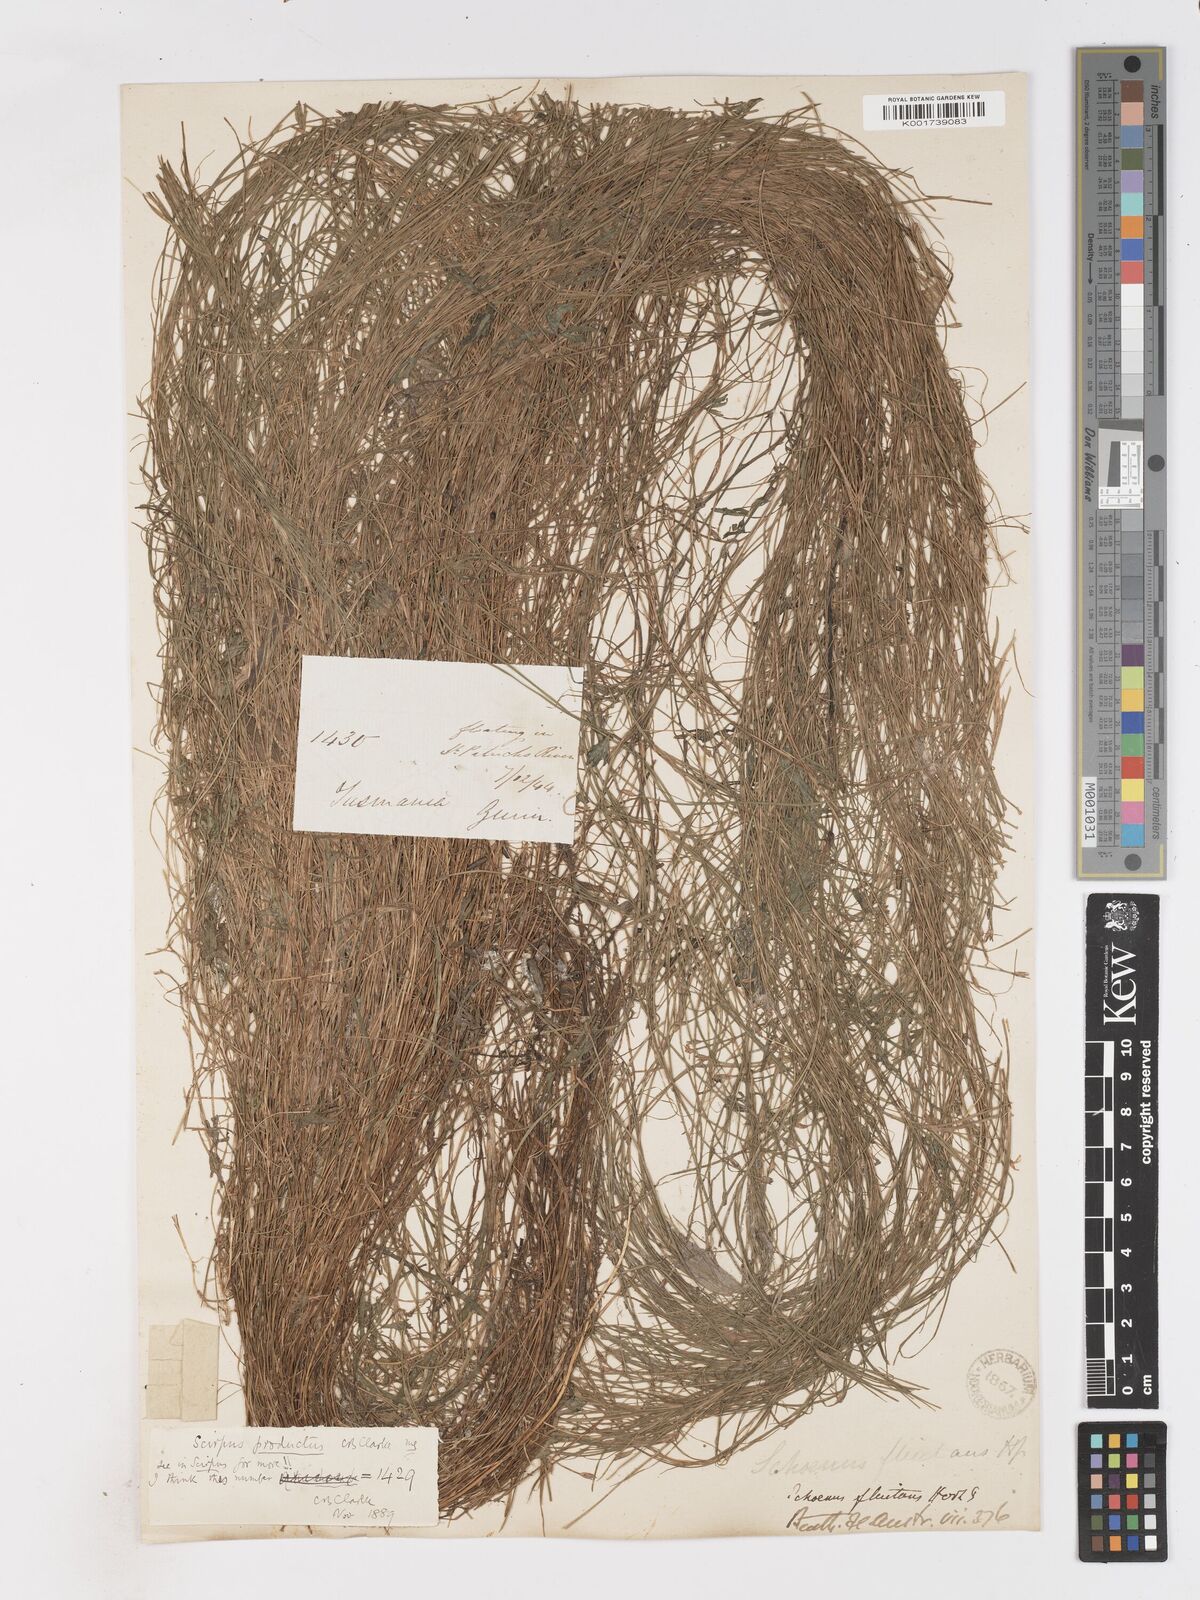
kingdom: Plantae
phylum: Tracheophyta
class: Liliopsida
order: Poales
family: Cyperaceae
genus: Isolepis
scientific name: Isolepis producta
